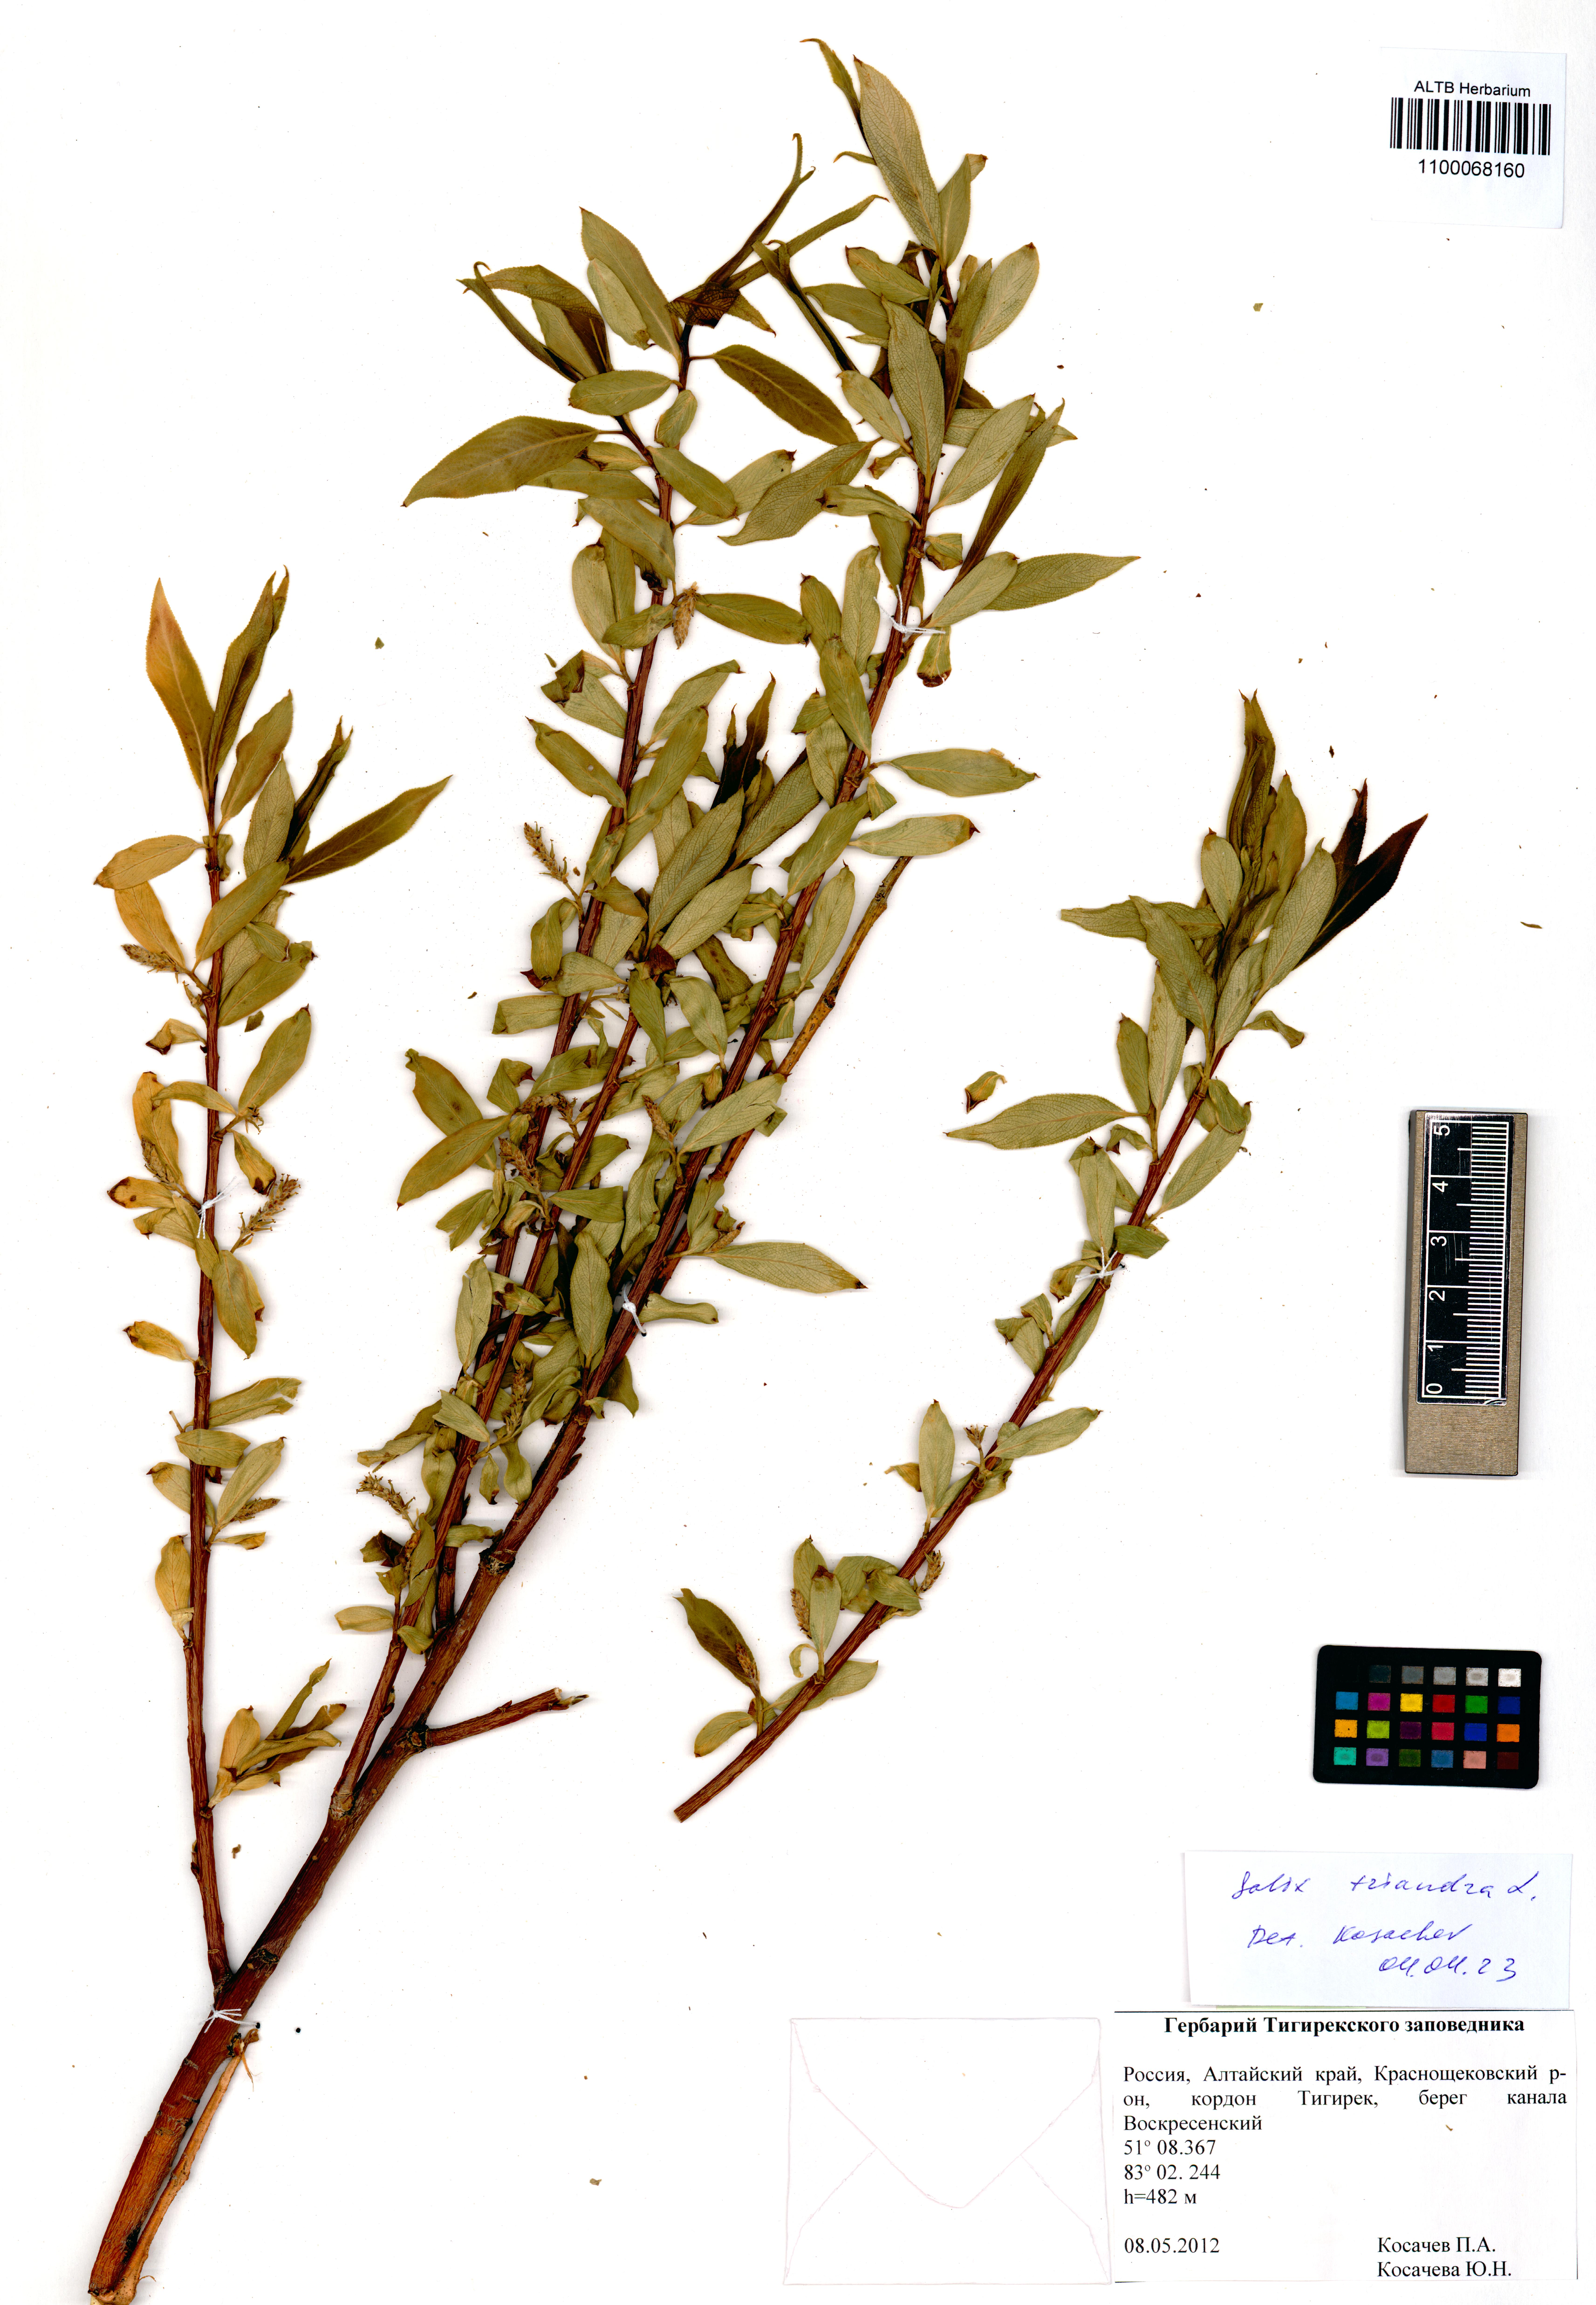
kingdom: Plantae
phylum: Tracheophyta
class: Magnoliopsida
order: Malpighiales
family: Salicaceae
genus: Salix
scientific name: Salix triandra
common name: Almond willow
